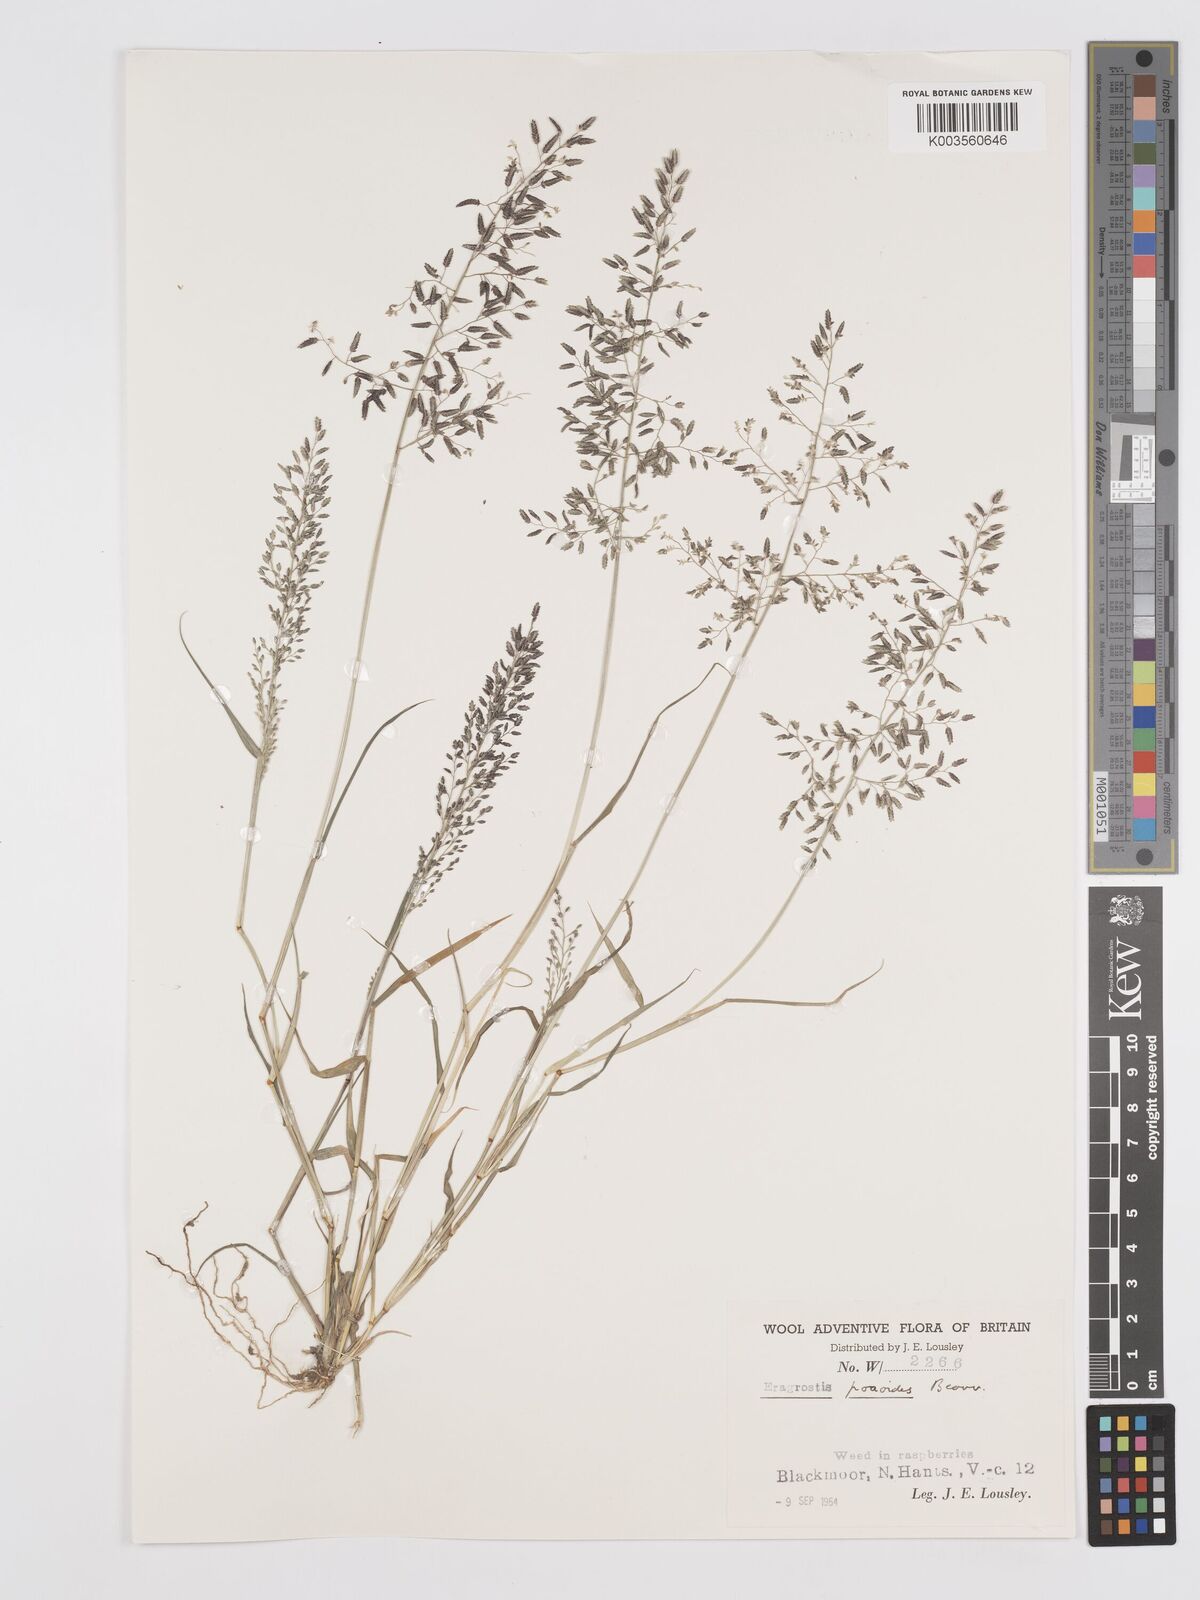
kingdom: Plantae
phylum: Tracheophyta
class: Liliopsida
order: Poales
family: Poaceae
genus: Eragrostis
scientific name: Eragrostis minor
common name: Small love-grass
